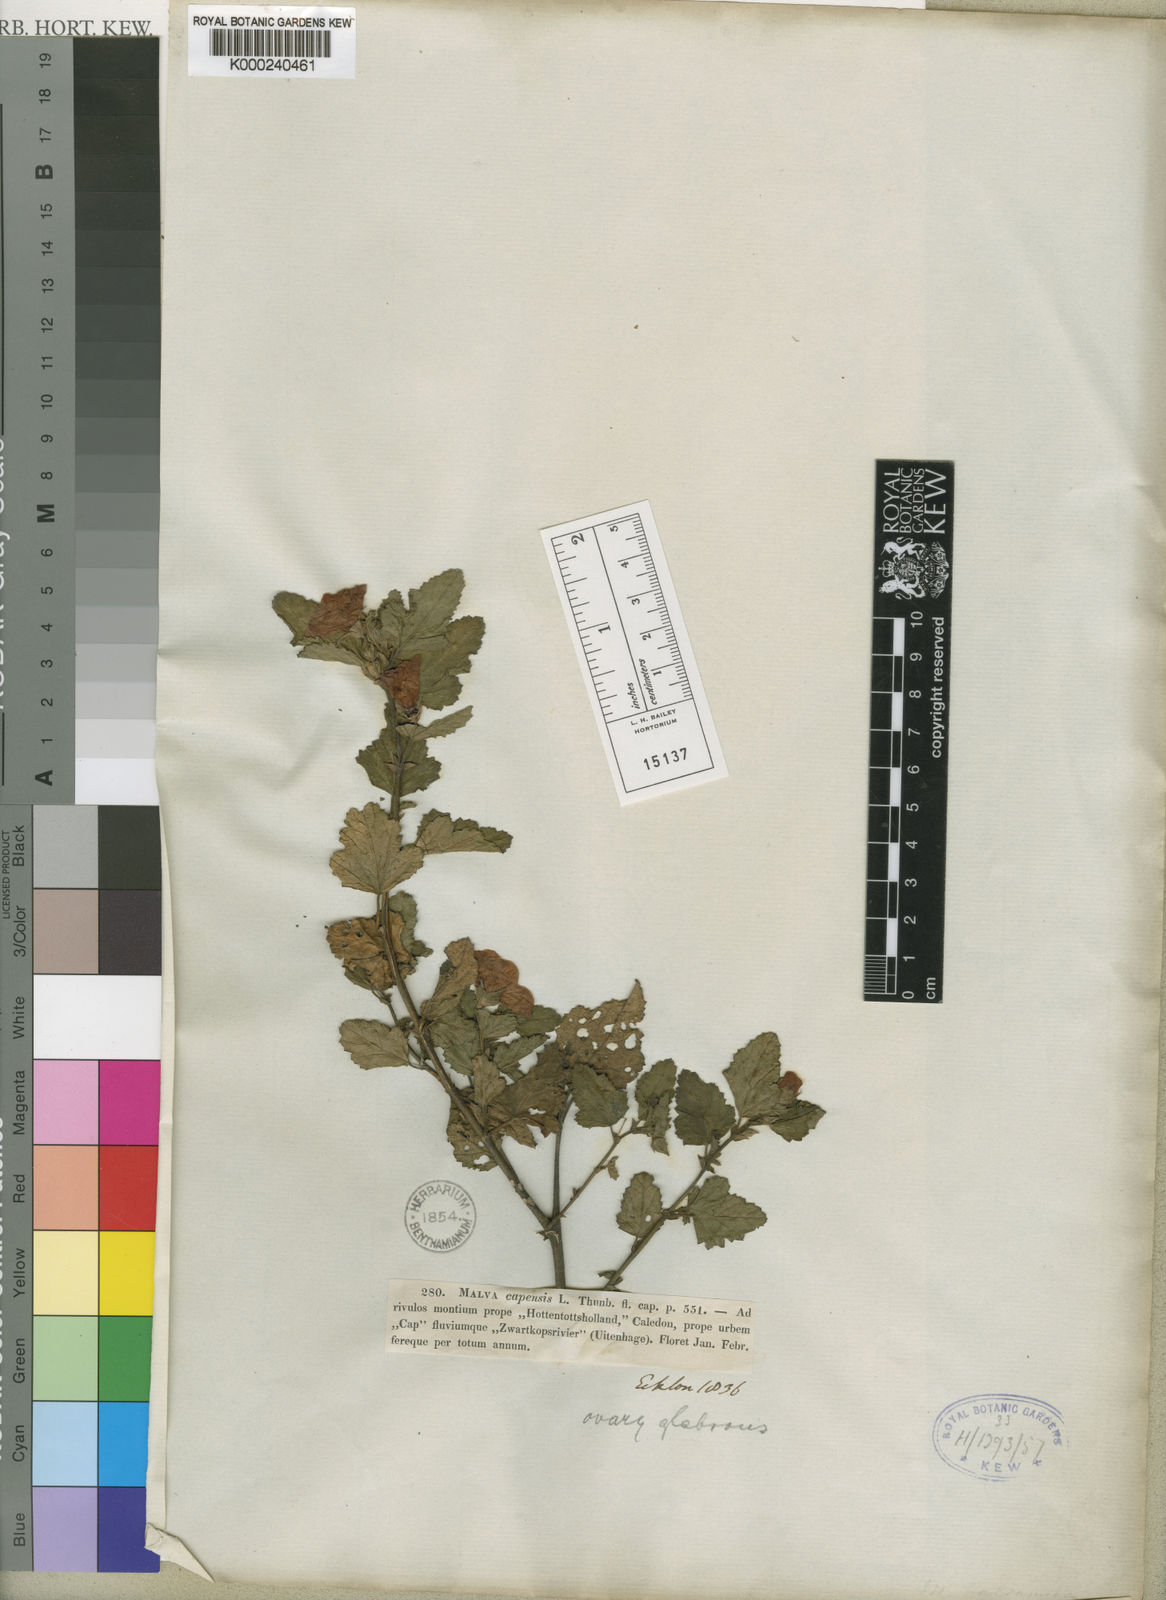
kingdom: Plantae
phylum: Tracheophyta
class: Magnoliopsida
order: Malvales
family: Malvaceae
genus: Anisodontea
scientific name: Anisodontea scabrosa
